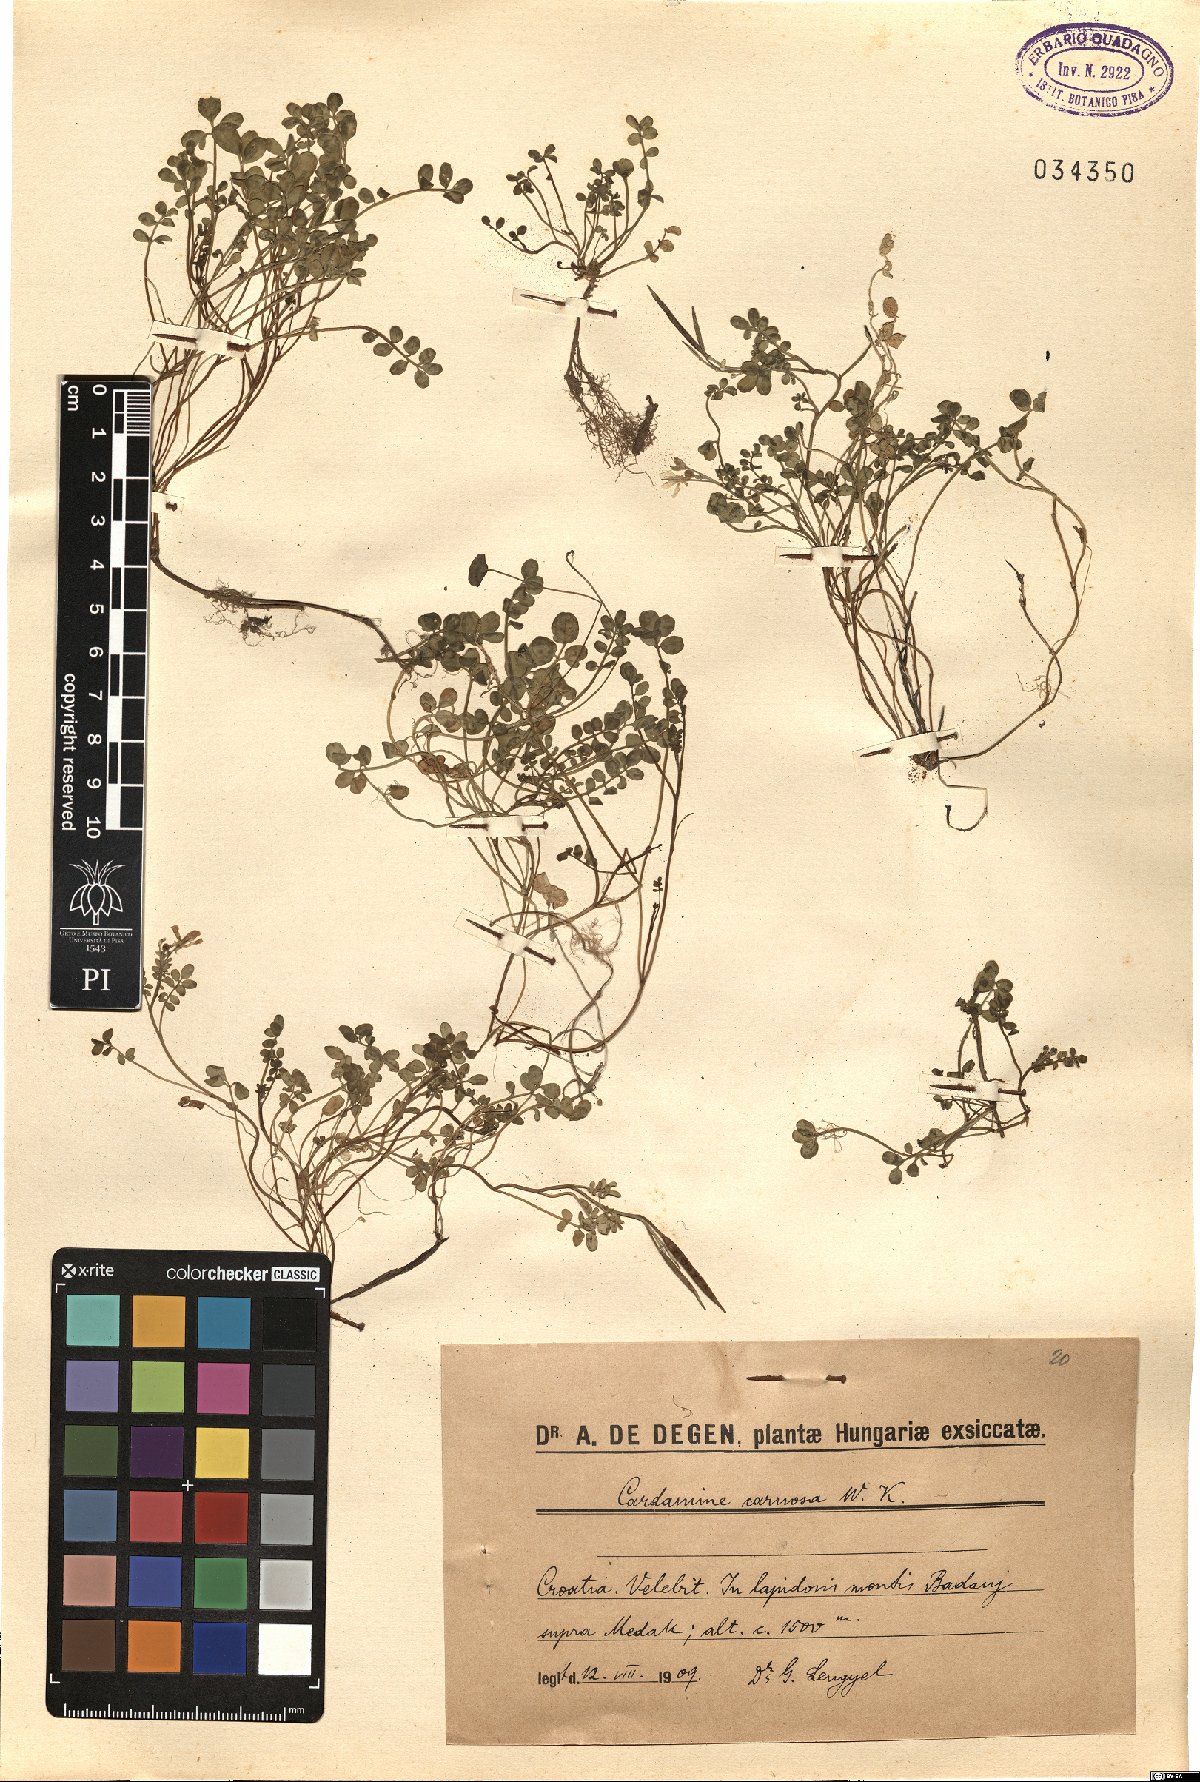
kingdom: Plantae
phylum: Tracheophyta
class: Magnoliopsida
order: Brassicales
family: Brassicaceae
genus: Cardamine
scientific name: Cardamine carnosa
